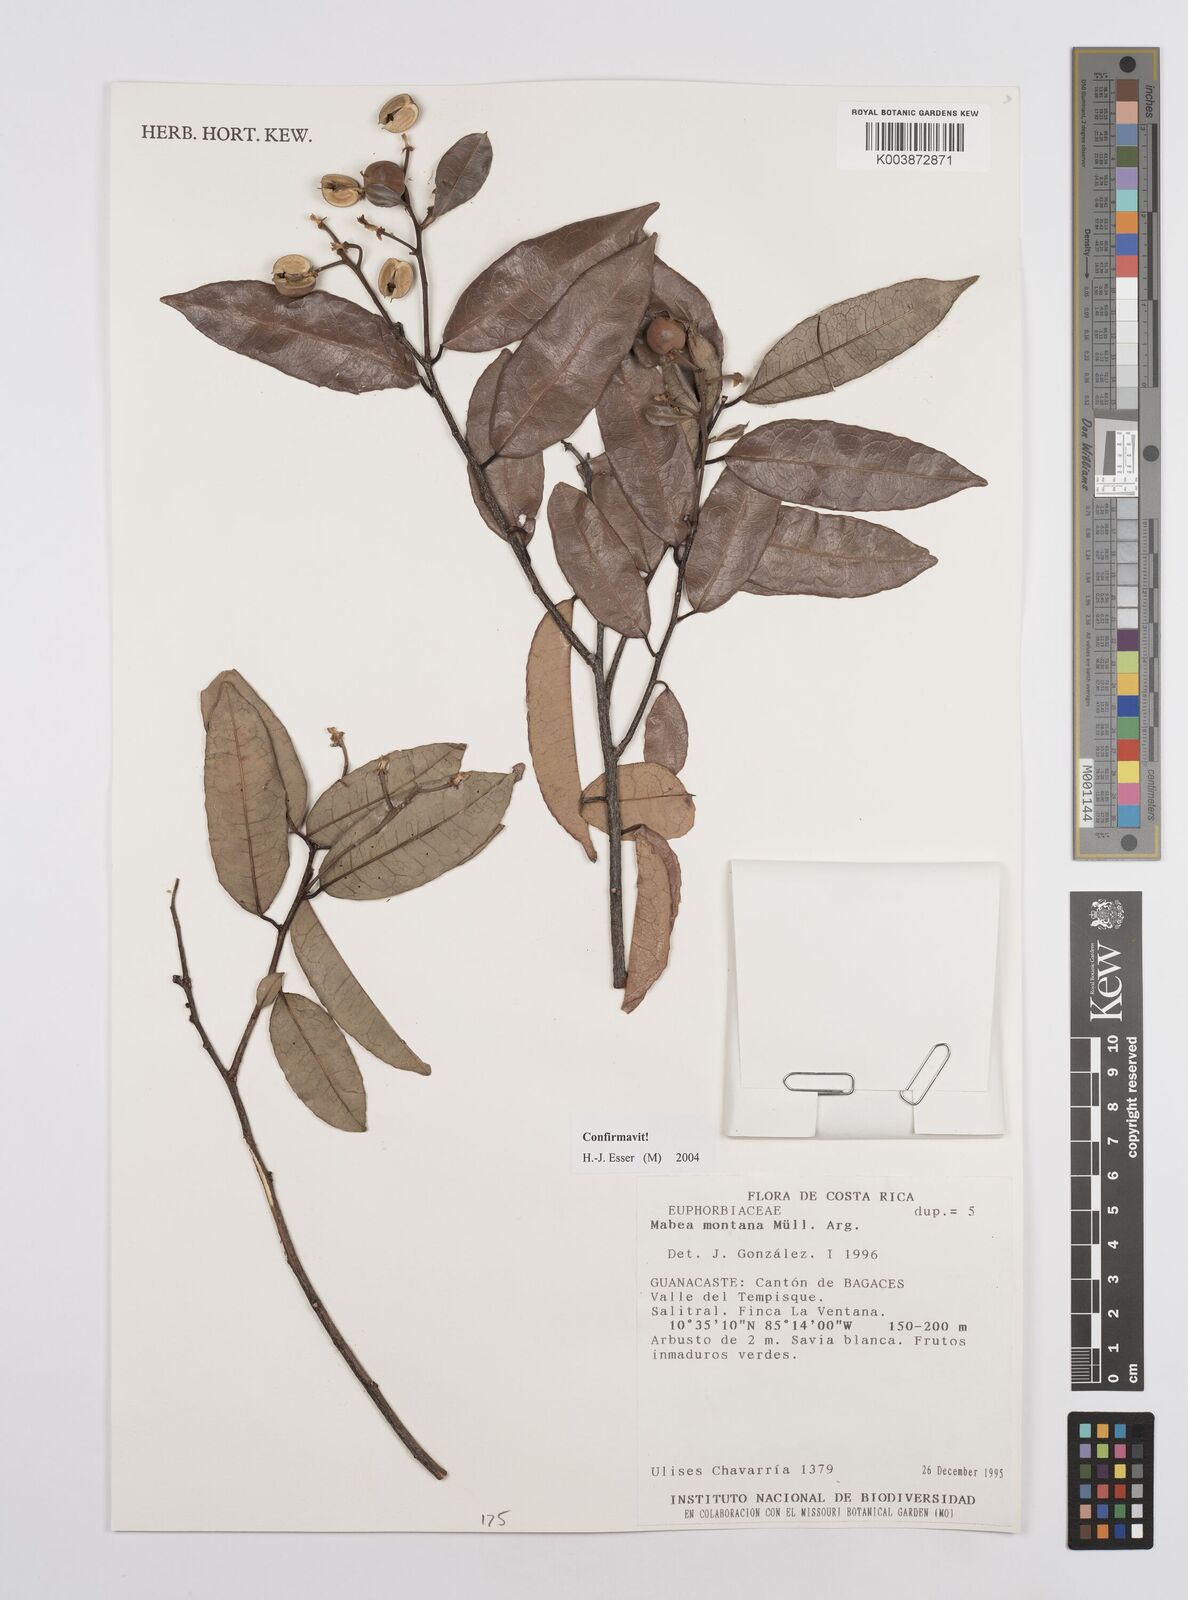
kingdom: Plantae
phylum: Tracheophyta
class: Magnoliopsida
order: Malpighiales
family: Euphorbiaceae
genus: Mabea
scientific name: Mabea montana
